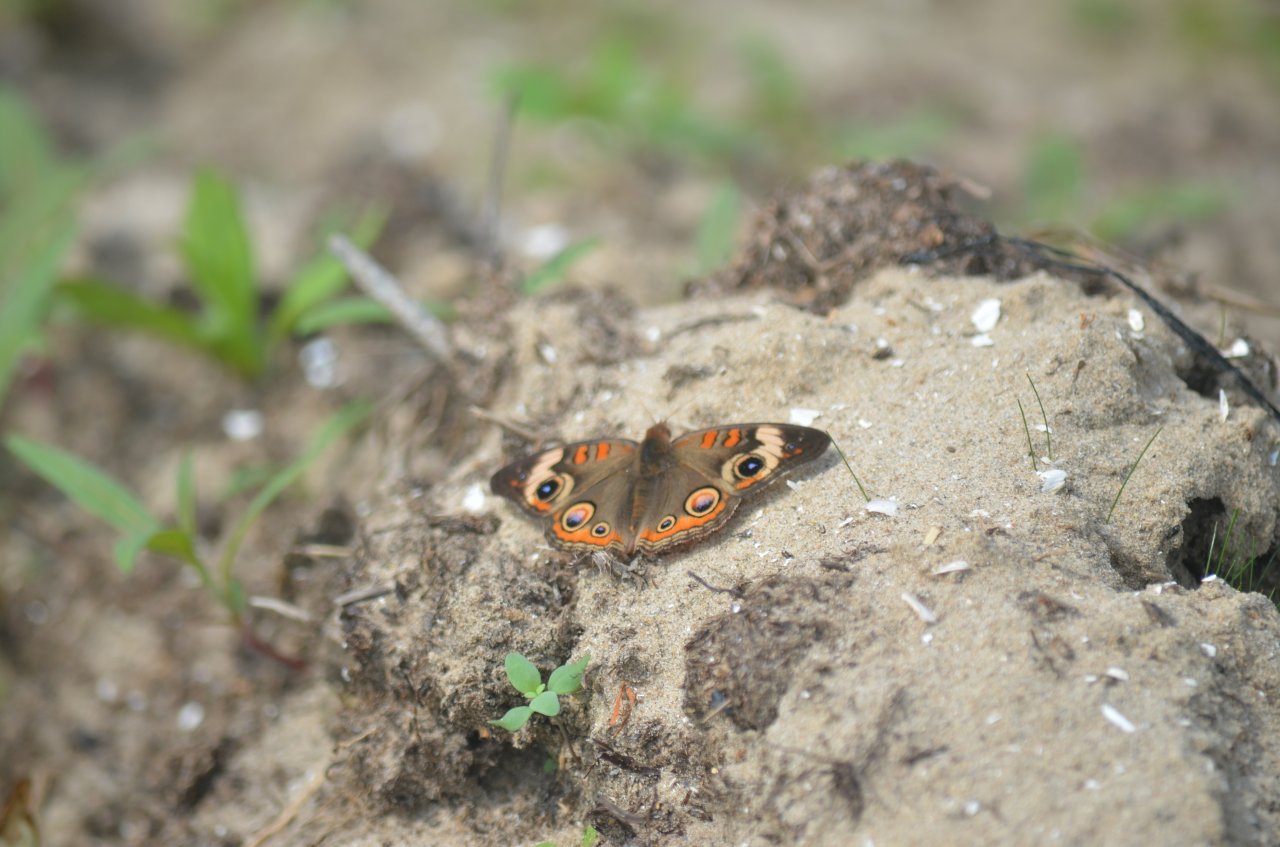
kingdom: Animalia
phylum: Arthropoda
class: Insecta
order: Lepidoptera
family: Nymphalidae
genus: Junonia
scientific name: Junonia coenia
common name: Common Buckeye
